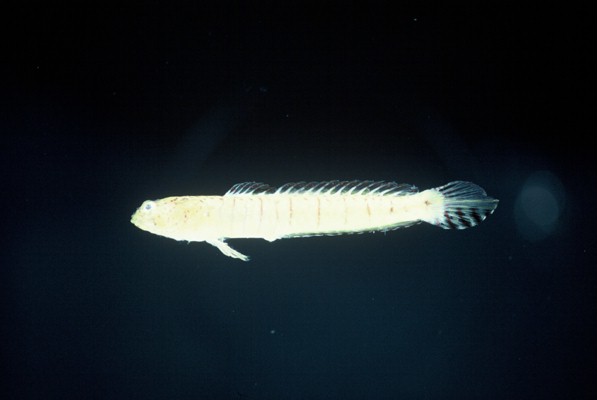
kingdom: Animalia
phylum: Chordata
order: Perciformes
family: Gobiidae
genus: Croilia
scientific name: Croilia mossambica
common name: Burrowing goby
